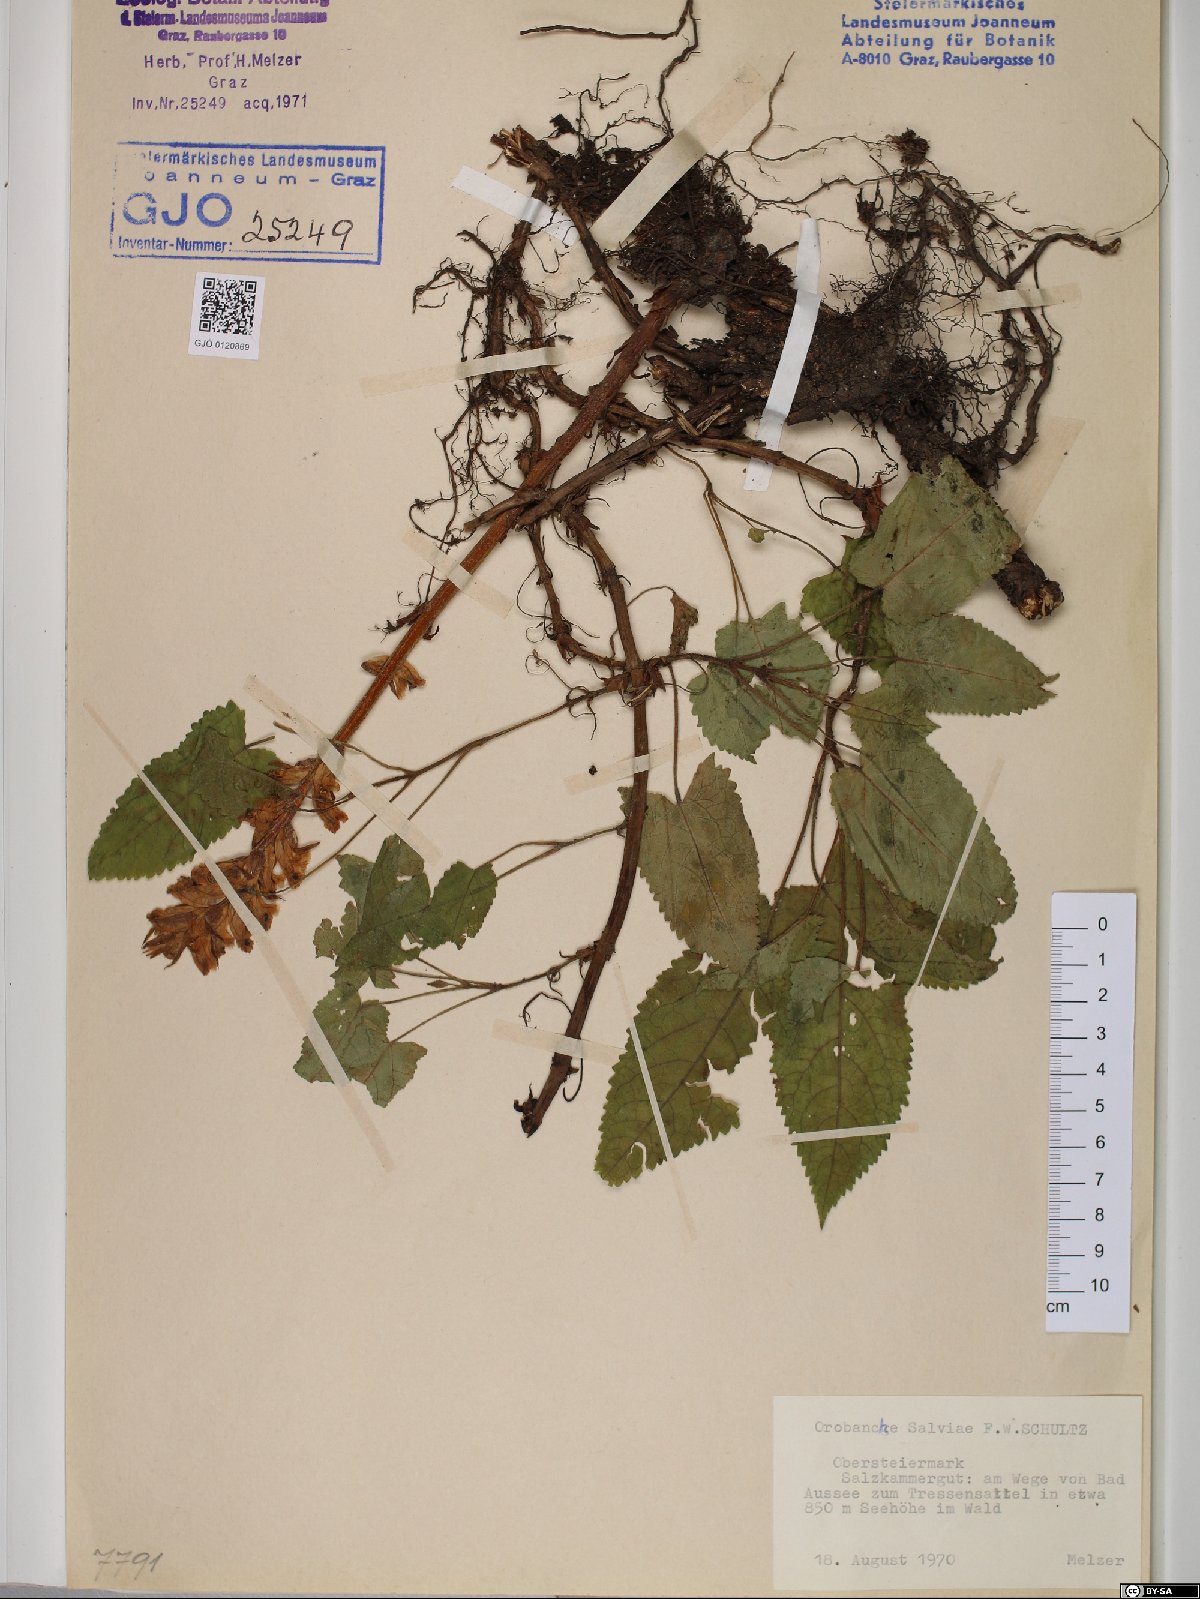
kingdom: Plantae
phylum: Tracheophyta
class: Magnoliopsida
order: Lamiales
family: Orobanchaceae
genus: Orobanche
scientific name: Orobanche salviae
